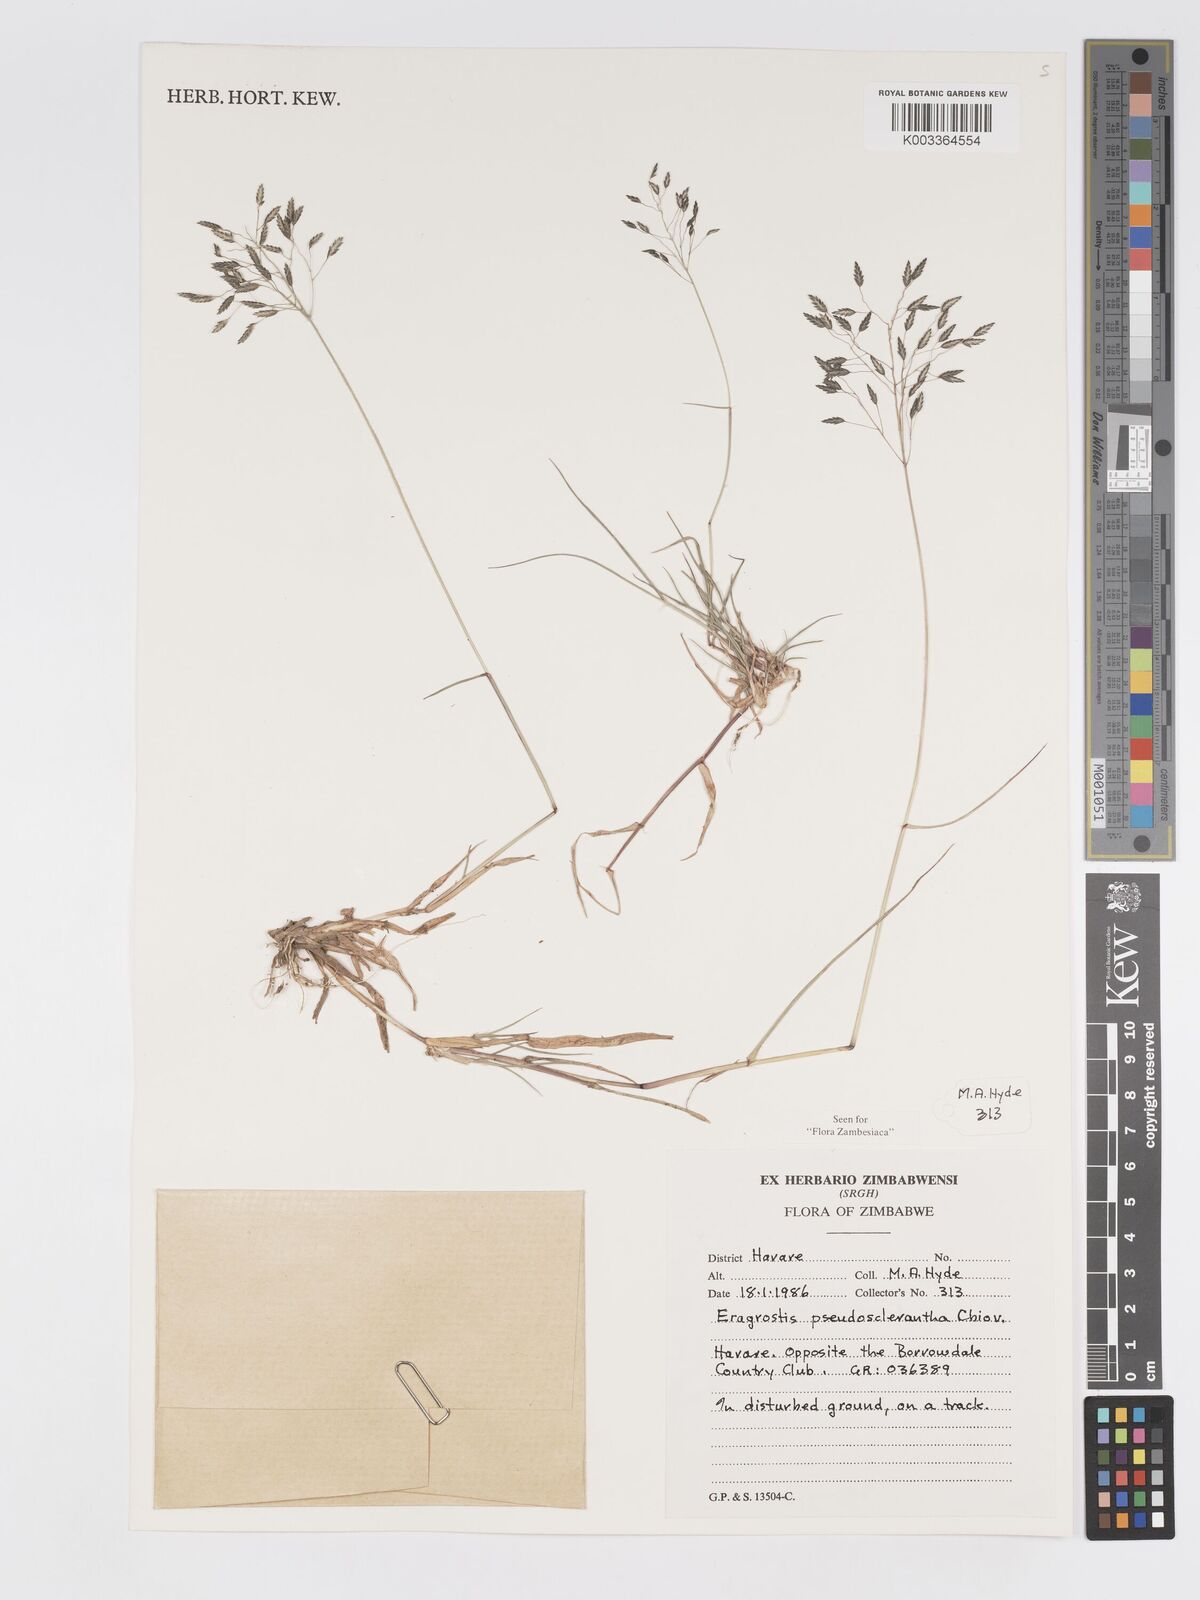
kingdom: Plantae
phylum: Tracheophyta
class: Liliopsida
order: Poales
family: Poaceae
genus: Eragrostis
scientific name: Eragrostis patentipilosa
